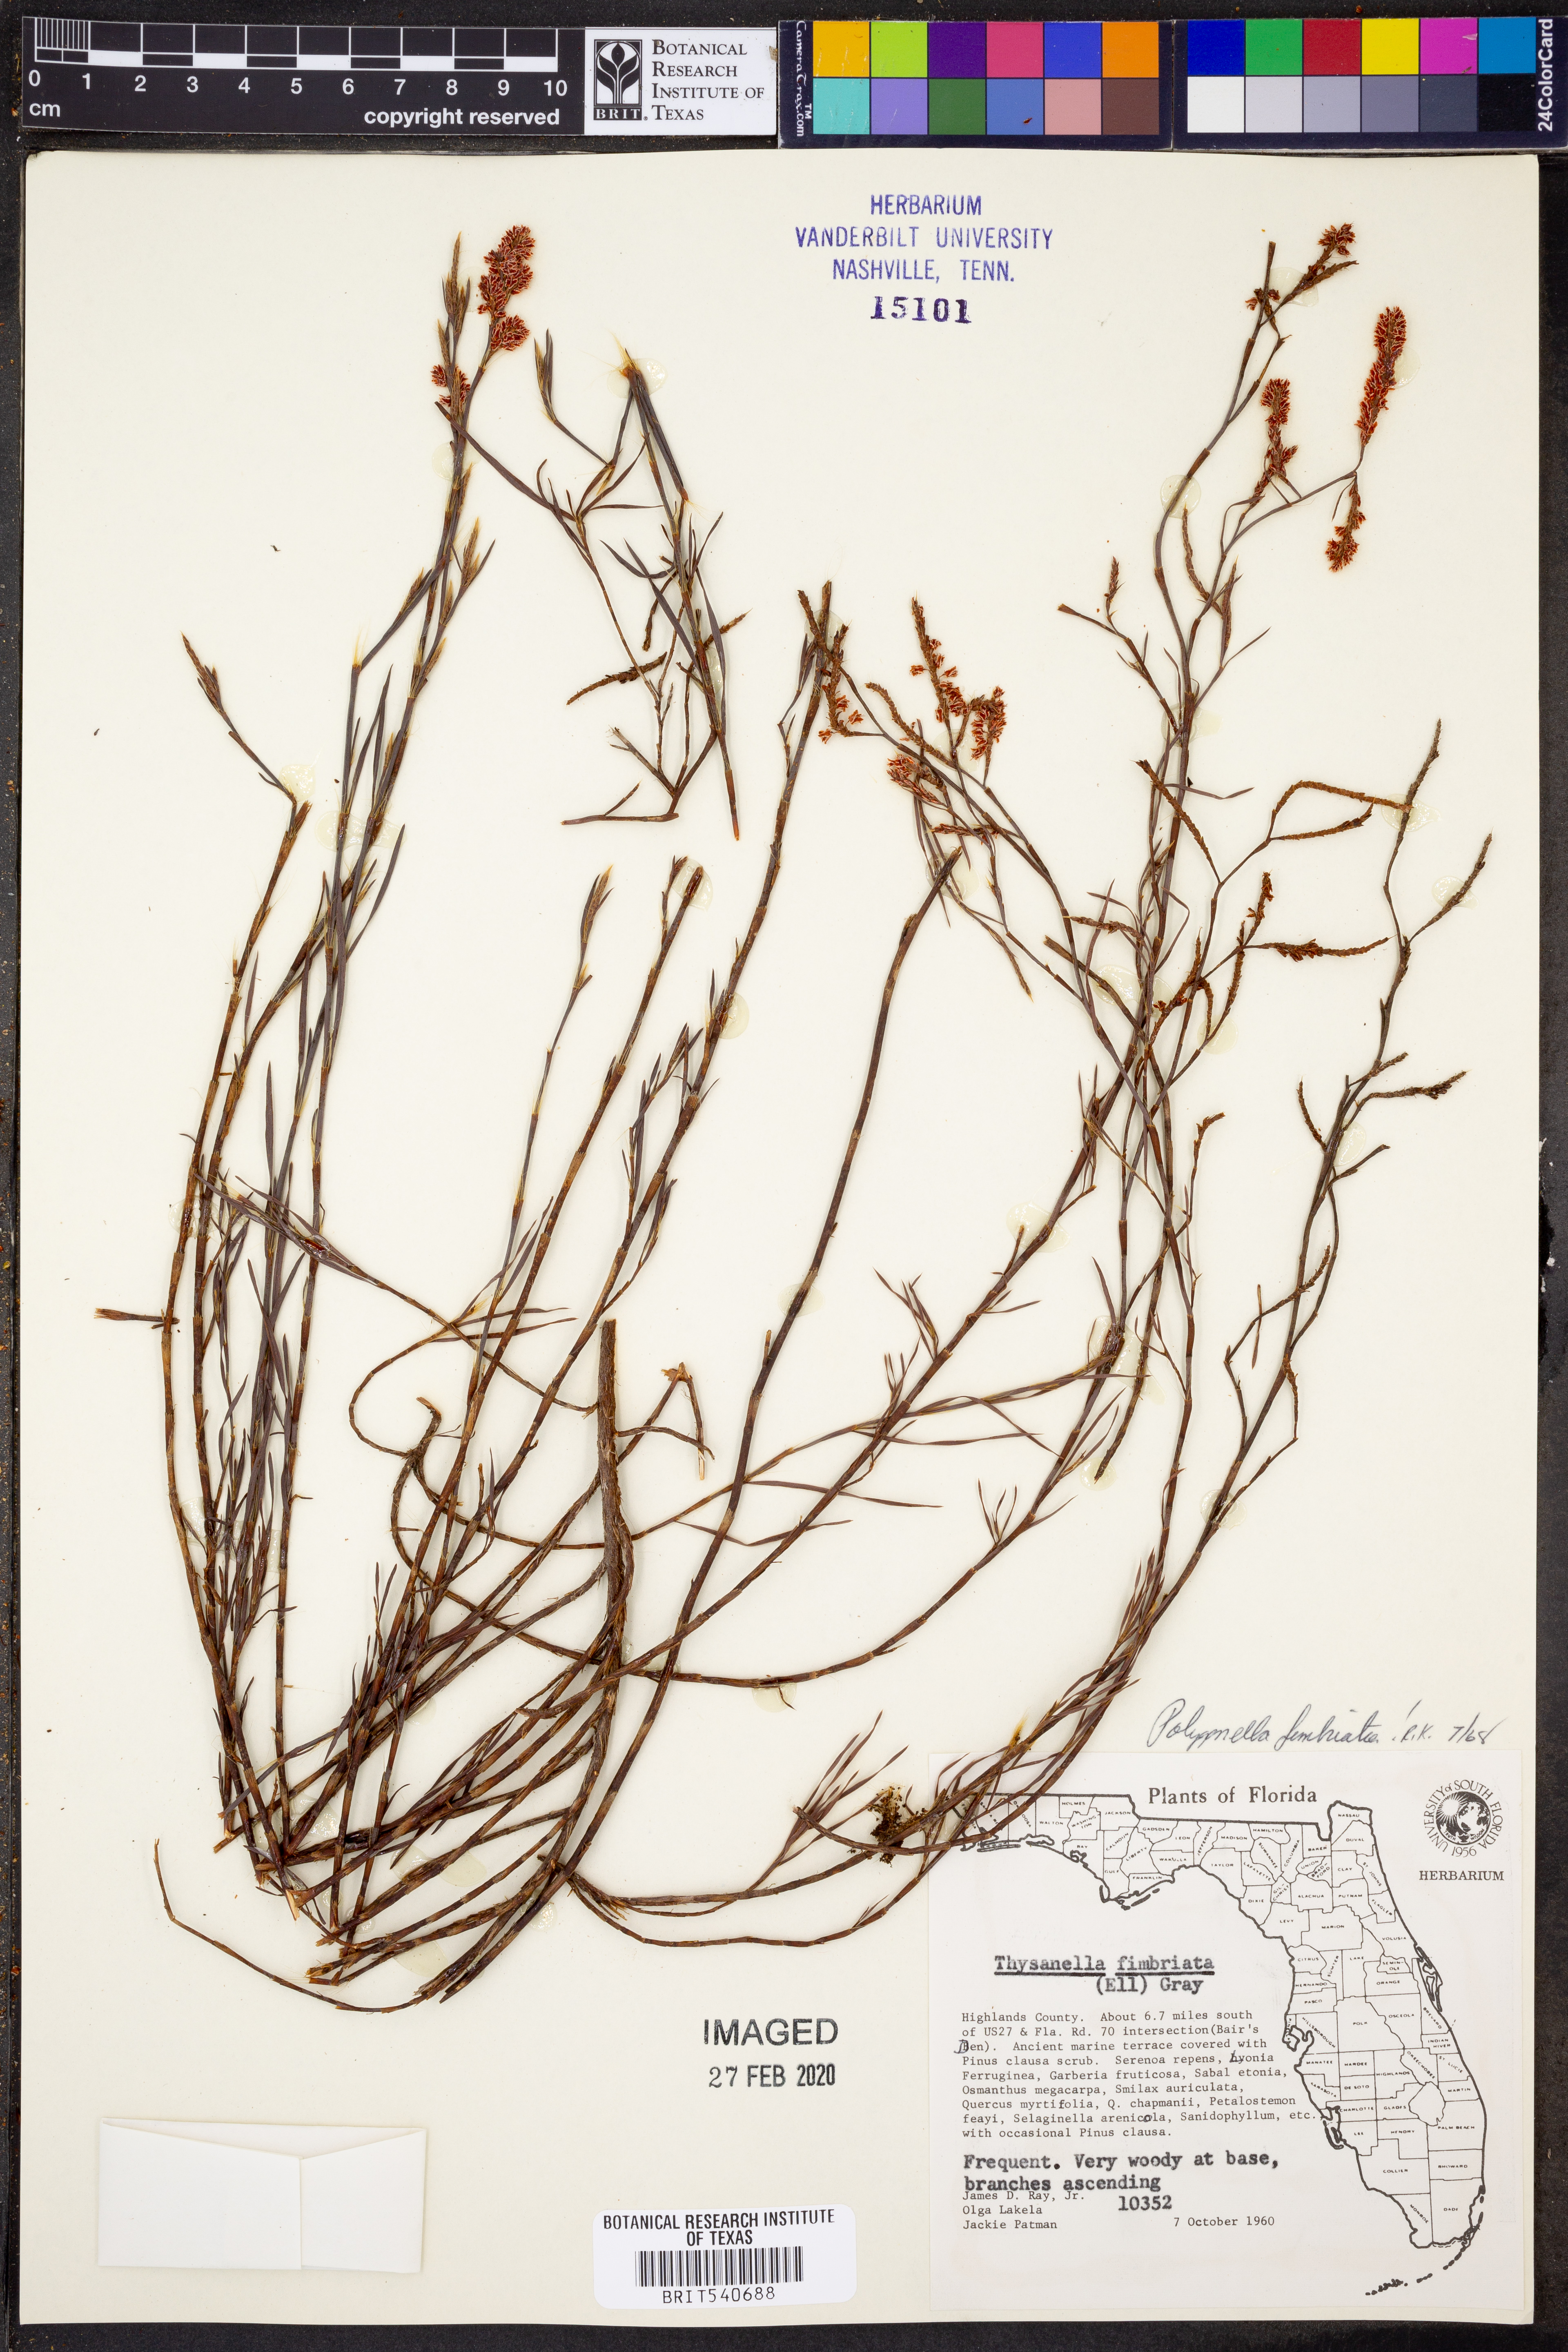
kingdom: Plantae
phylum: Tracheophyta
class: Magnoliopsida
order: Caryophyllales
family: Polygonaceae
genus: Polygonella
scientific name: Polygonella fimbriata
